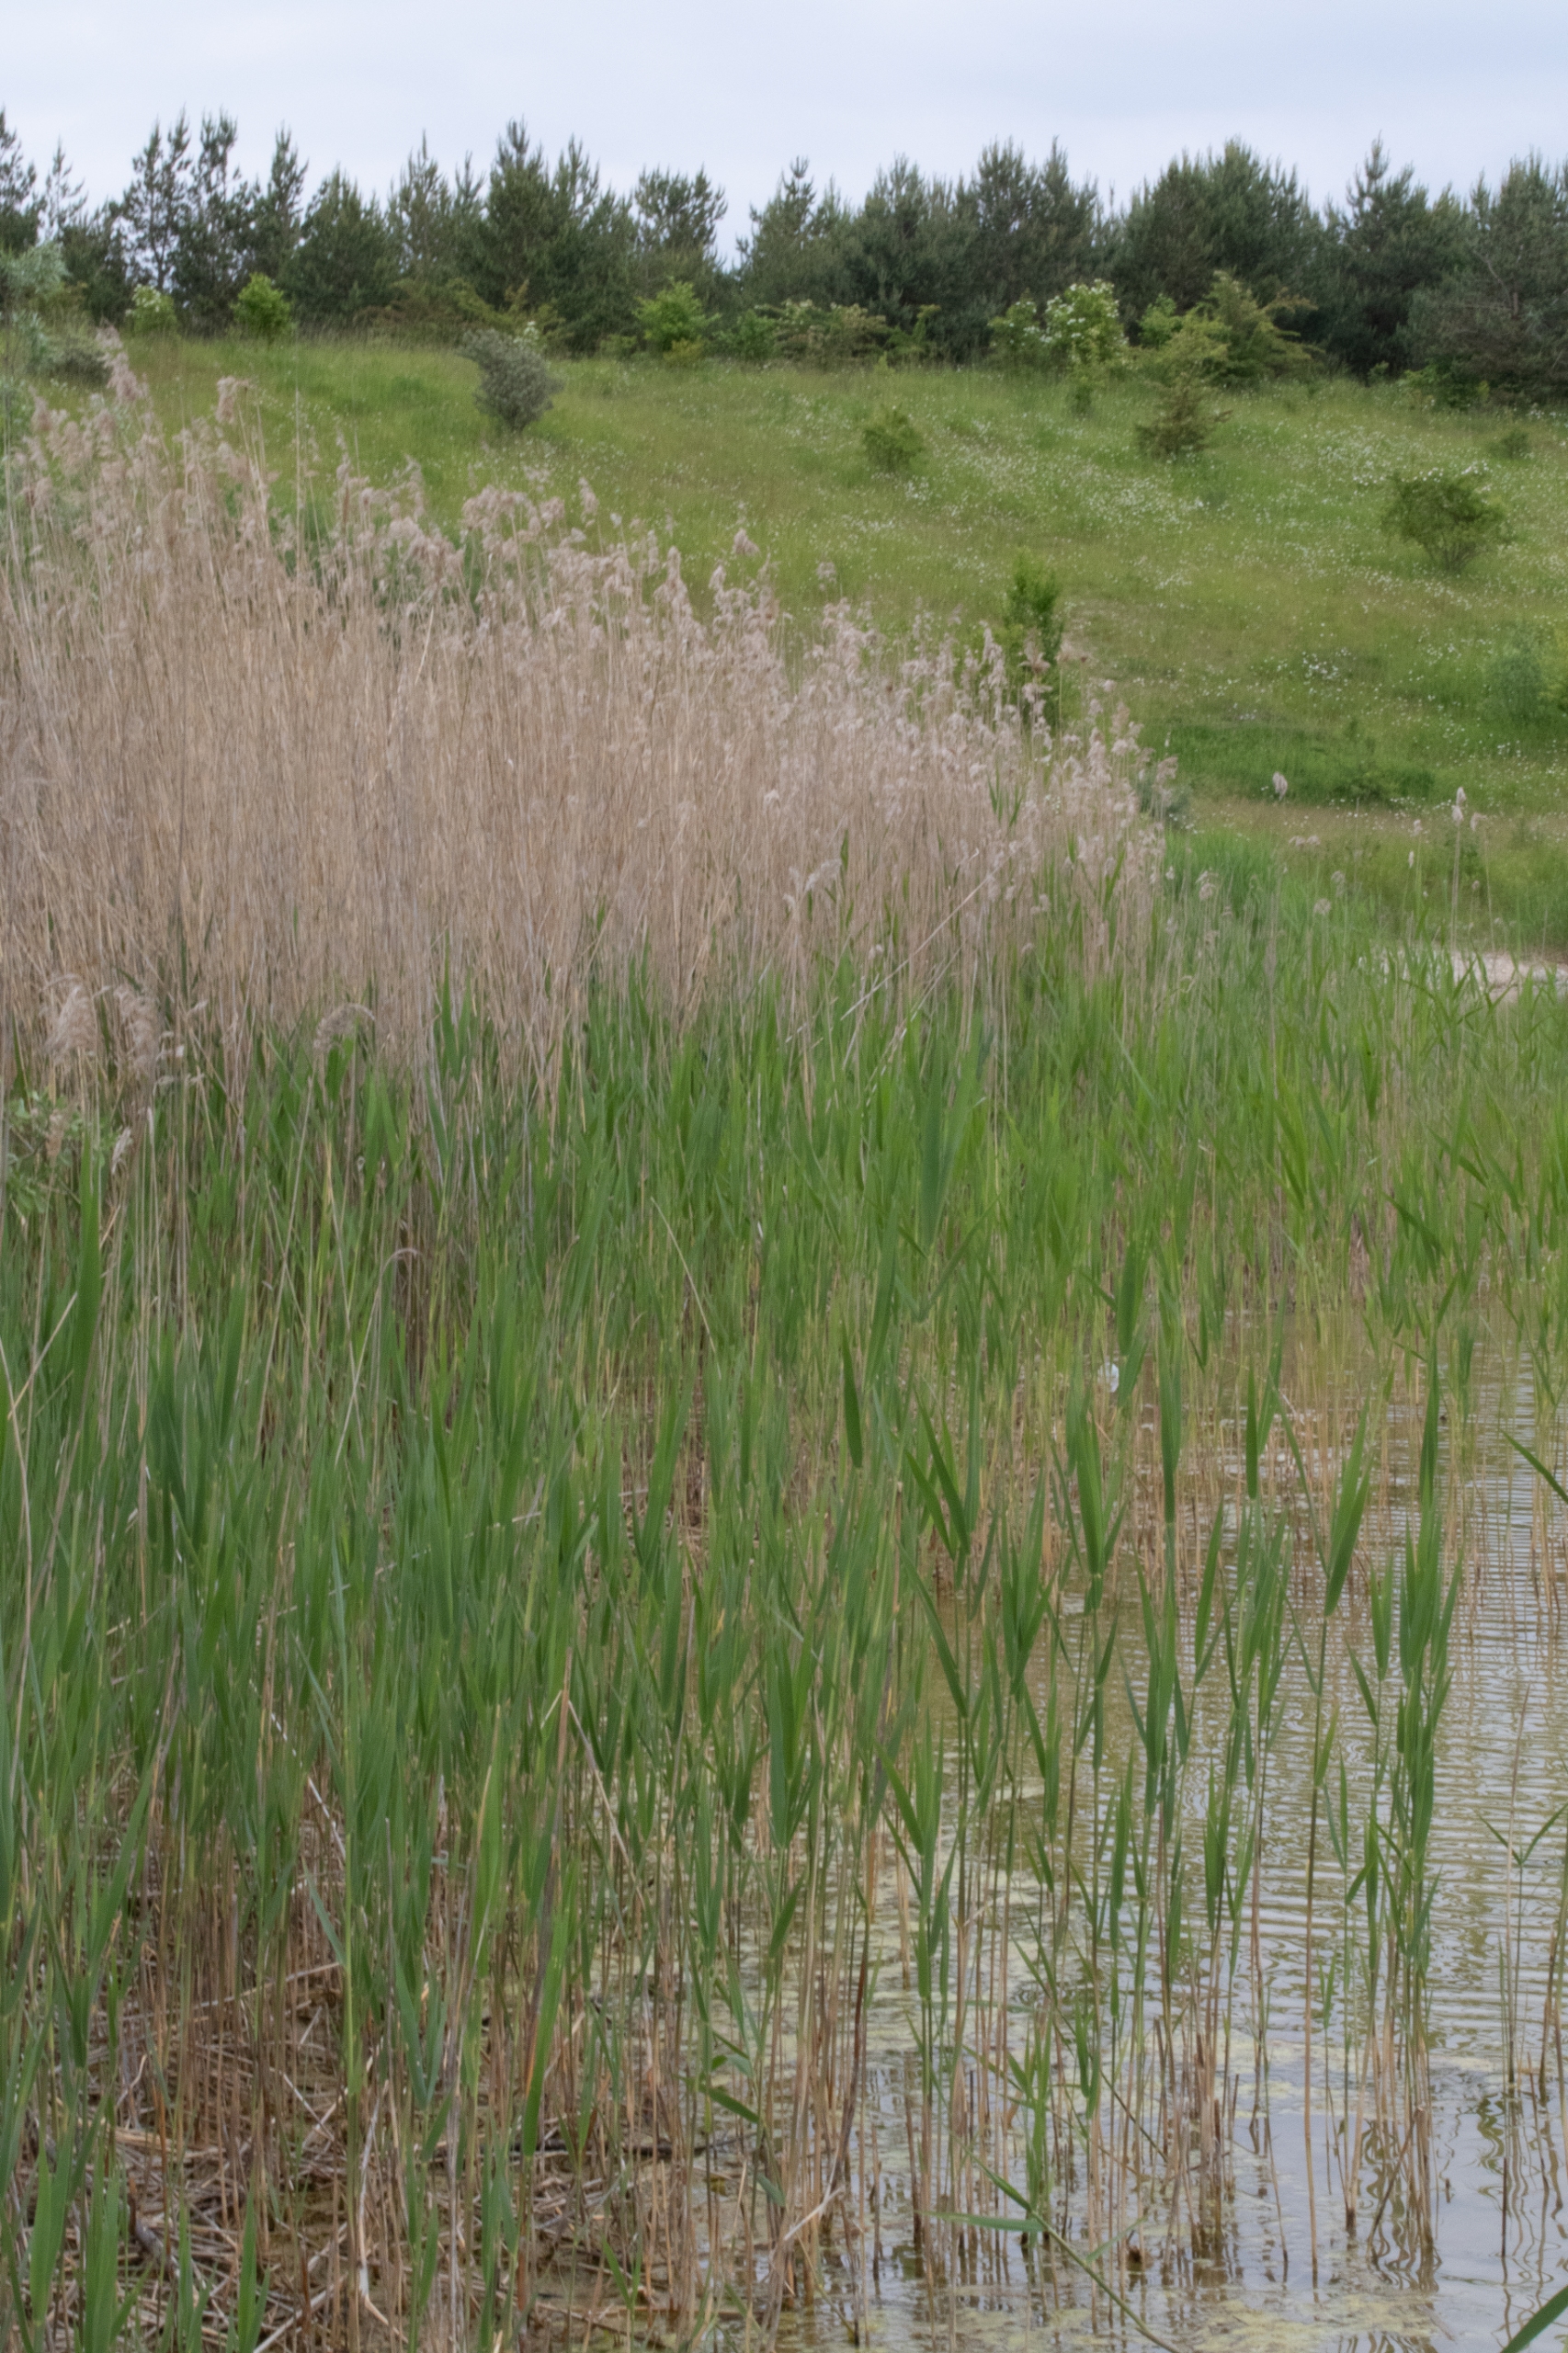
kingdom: Plantae
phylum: Tracheophyta
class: Liliopsida
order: Poales
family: Poaceae
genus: Phragmites
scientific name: Phragmites australis
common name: Tagrør
